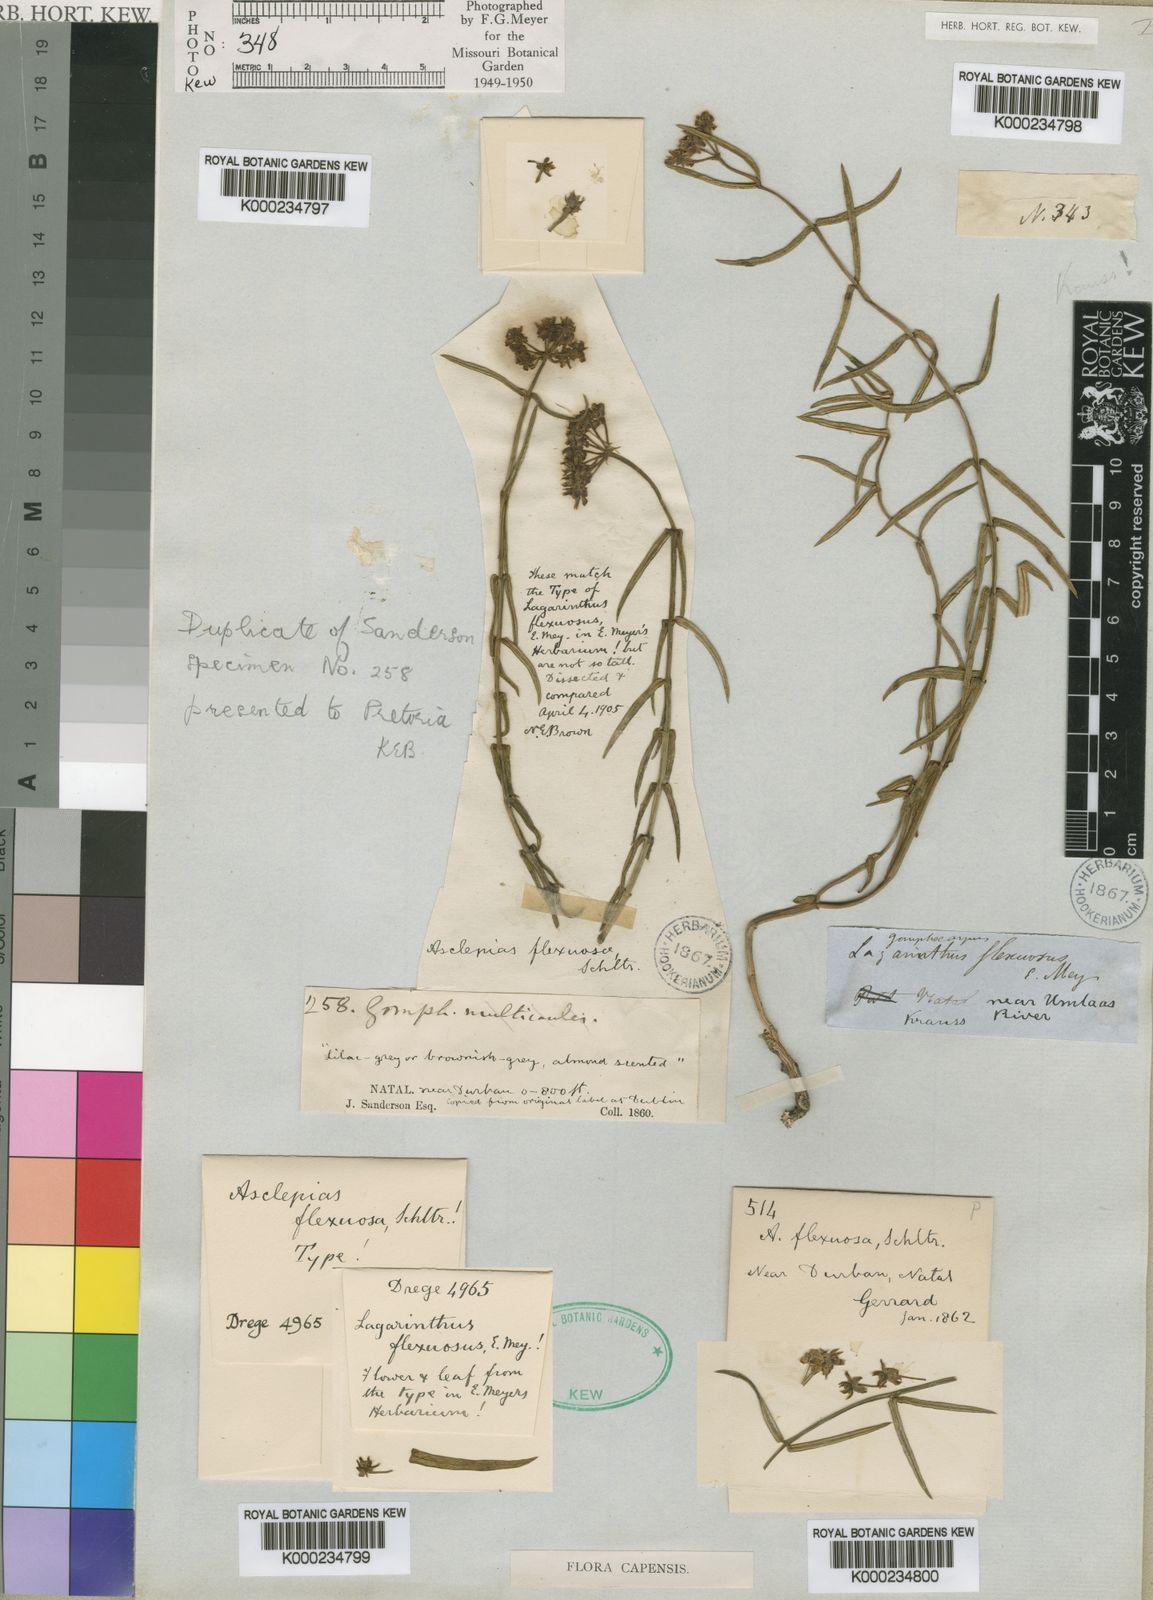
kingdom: Plantae
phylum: Tracheophyta
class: Magnoliopsida
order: Gentianales
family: Apocynaceae
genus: Asclepias
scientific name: Asclepias flexuosa
